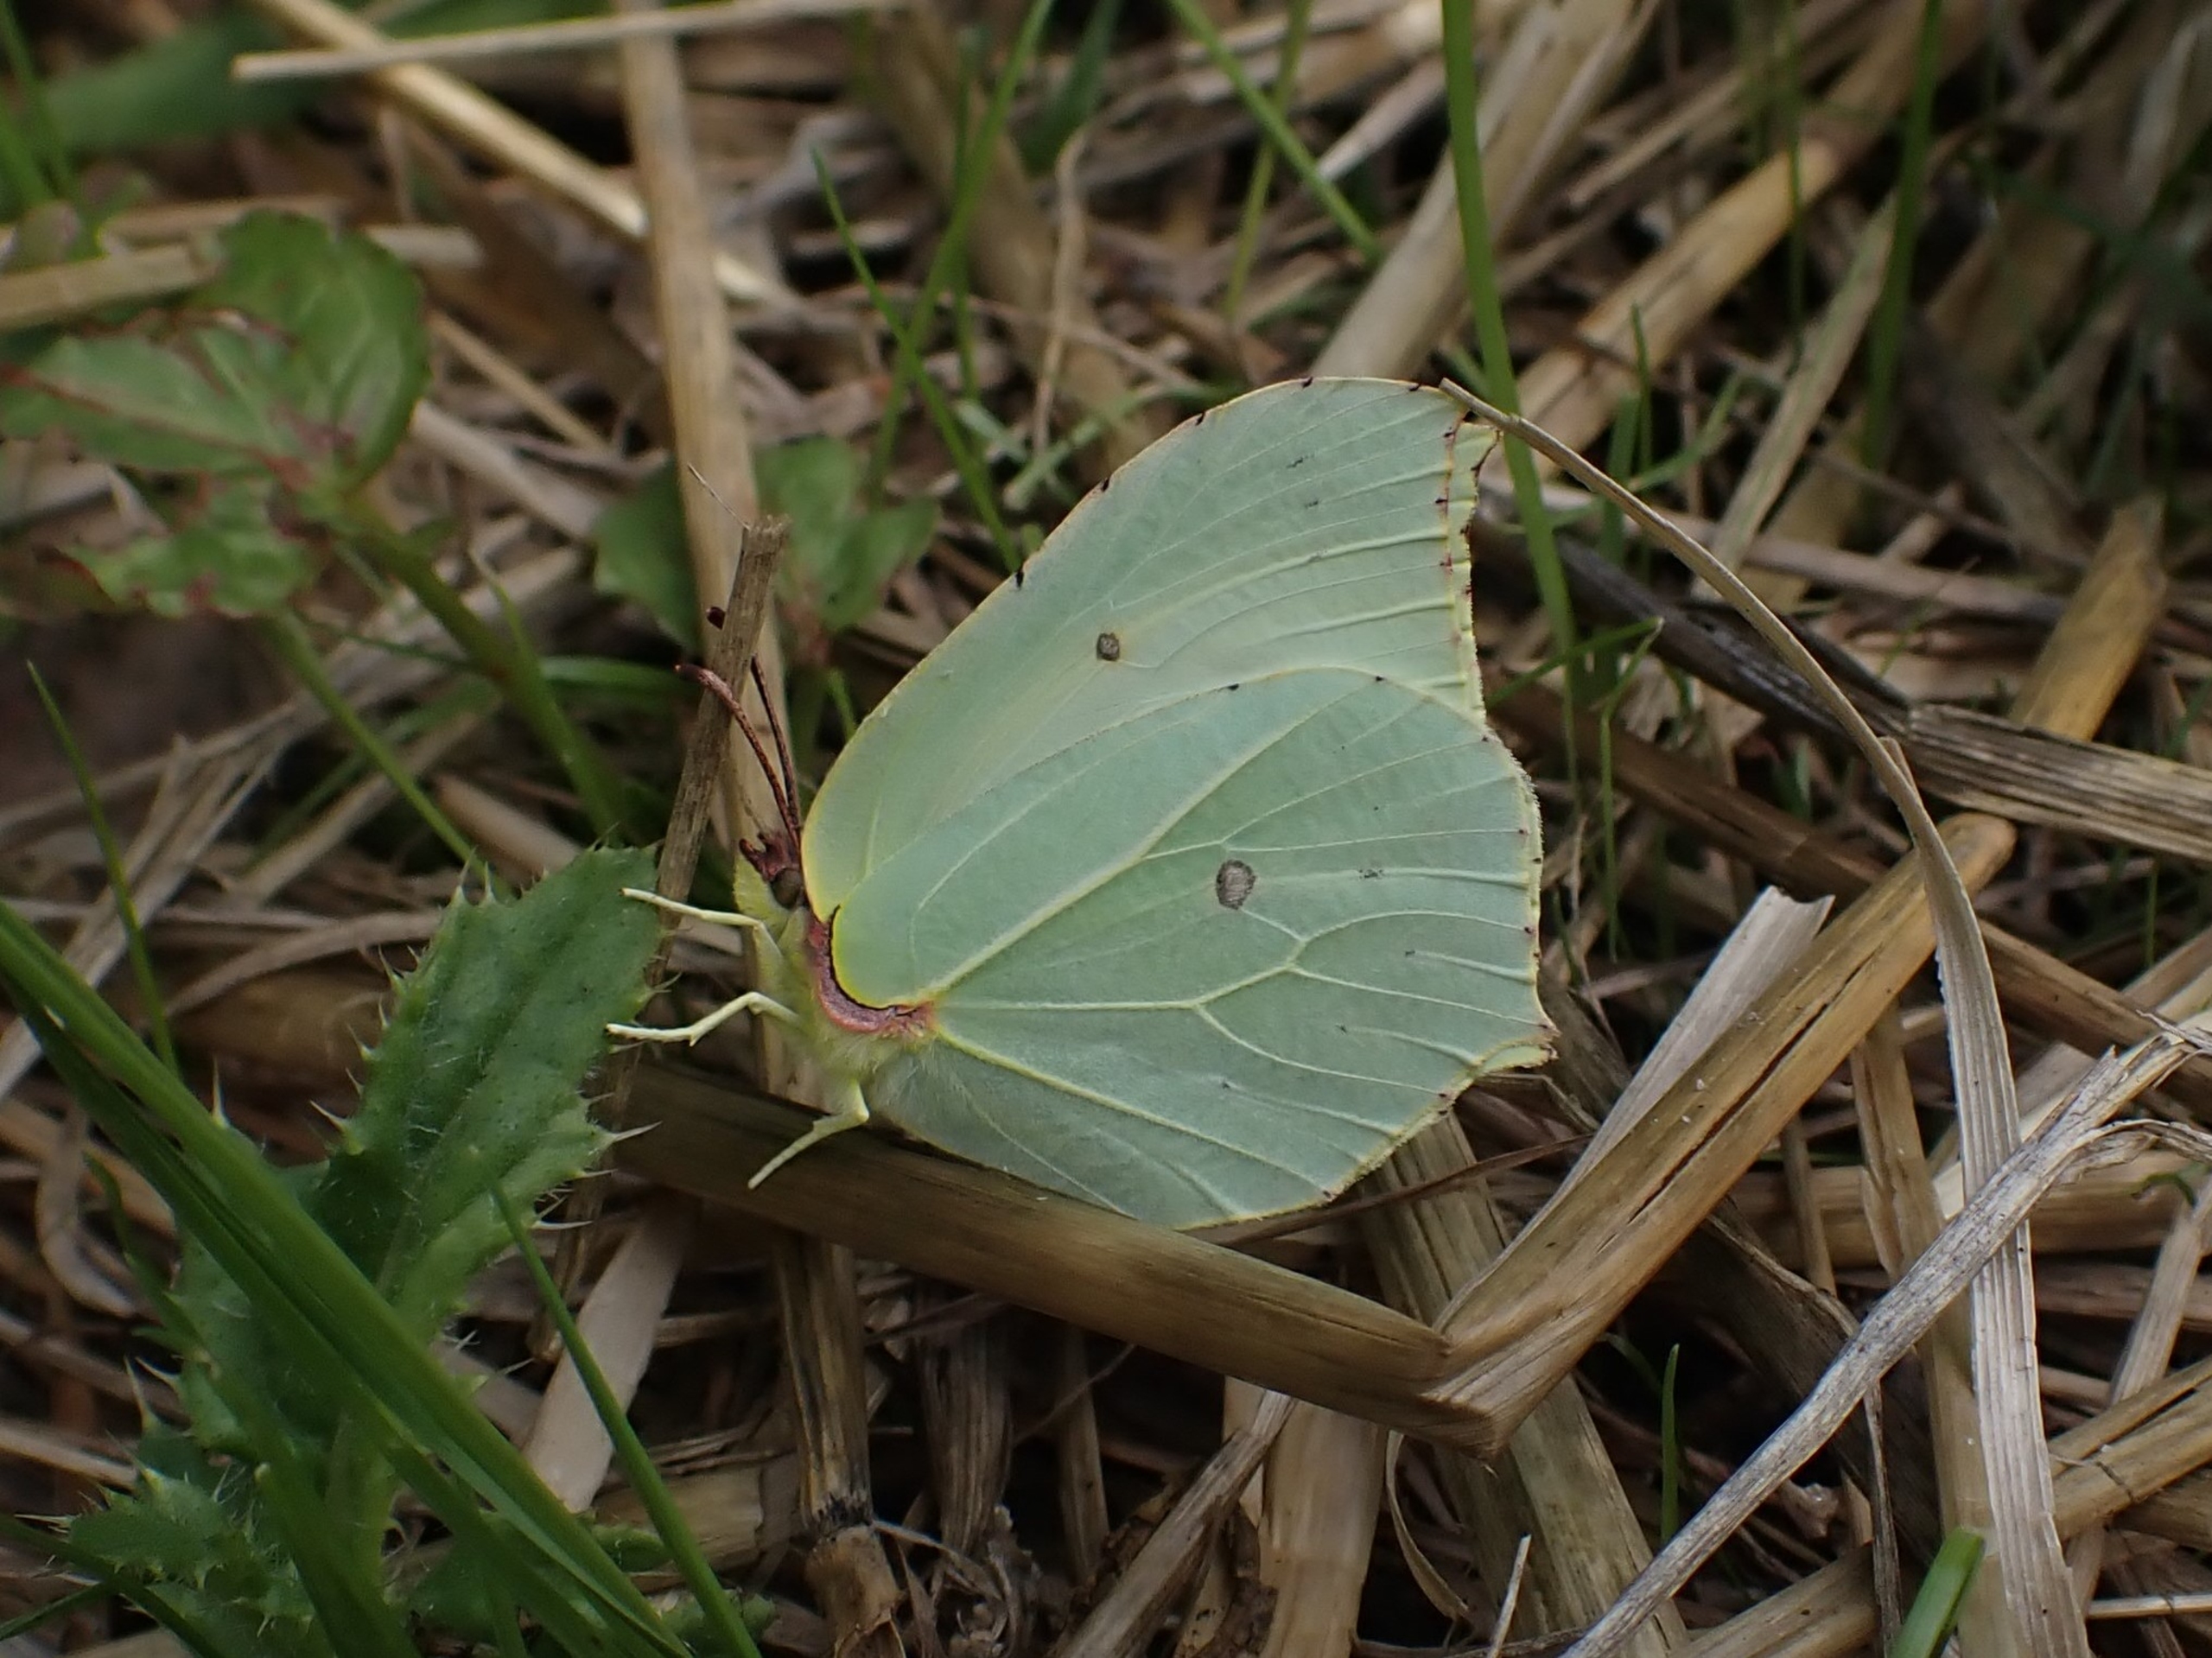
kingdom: Animalia
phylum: Arthropoda
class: Insecta
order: Lepidoptera
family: Pieridae
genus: Gonepteryx
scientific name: Gonepteryx rhamni
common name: Citronsommerfugl
